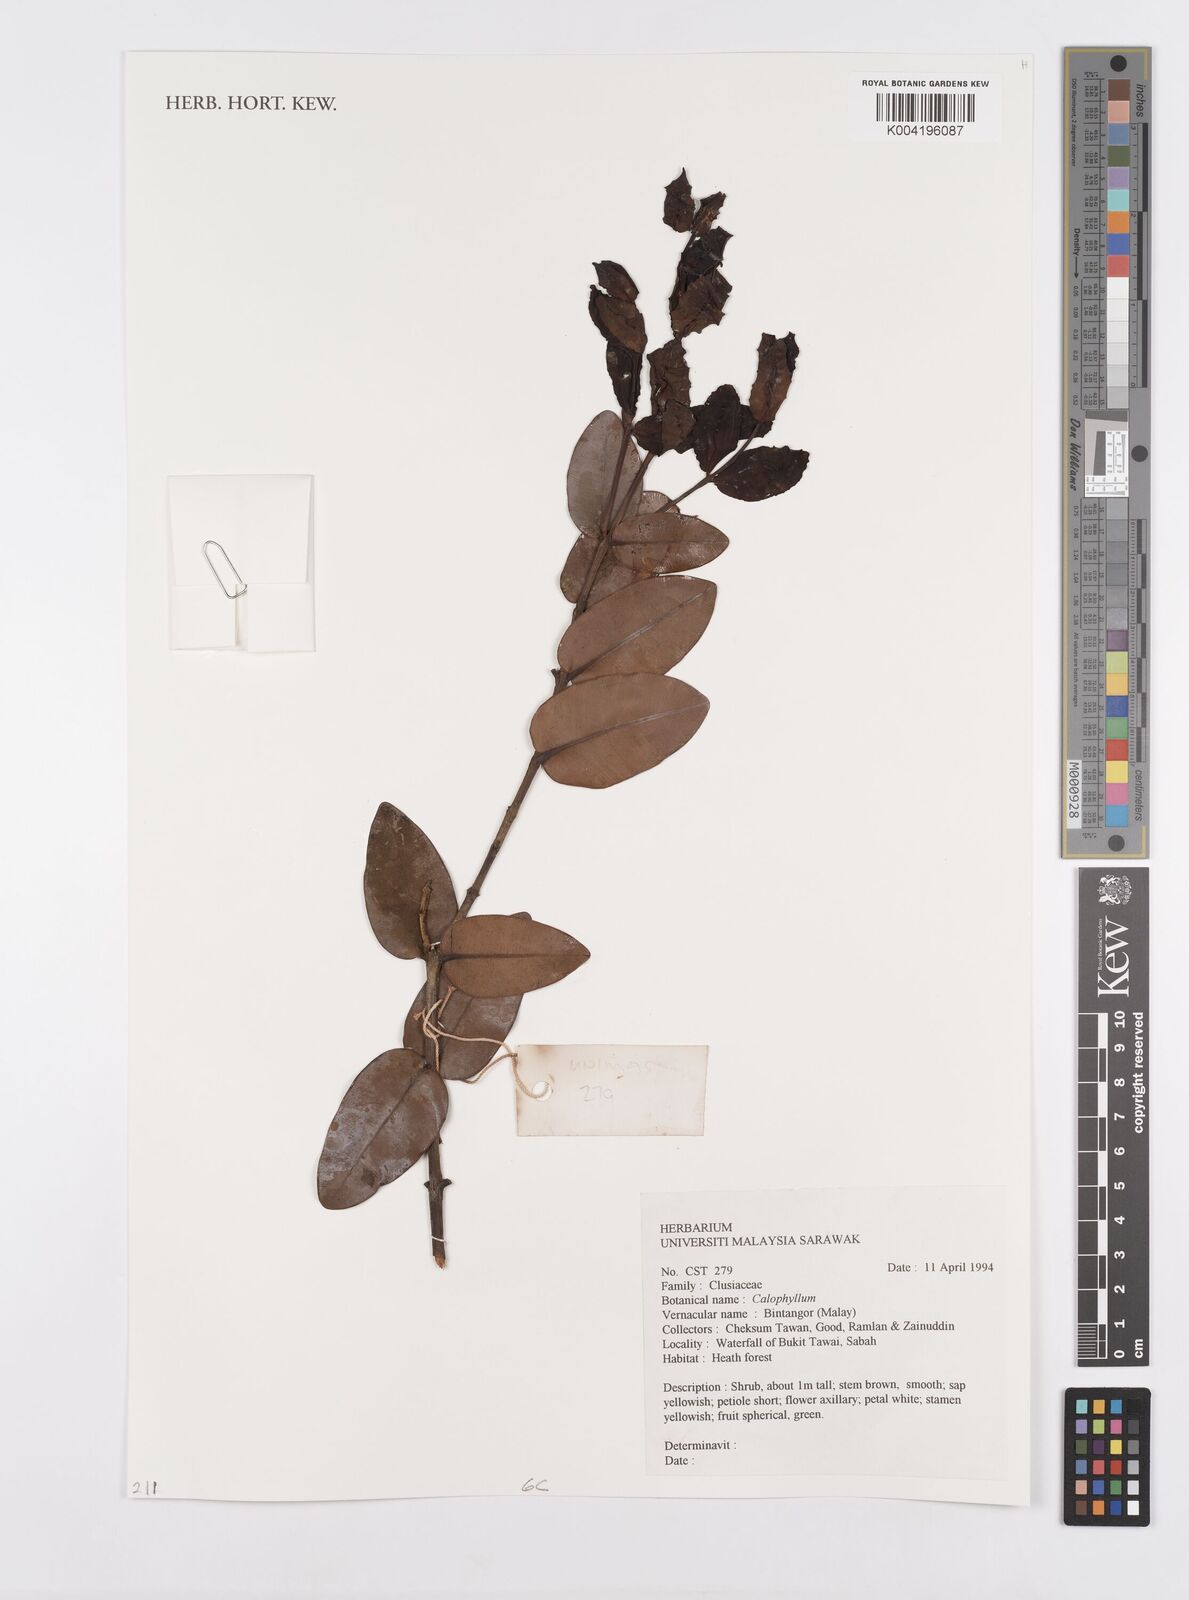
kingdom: Plantae
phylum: Tracheophyta
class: Magnoliopsida
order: Malpighiales
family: Calophyllaceae
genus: Calophyllum
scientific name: Calophyllum
